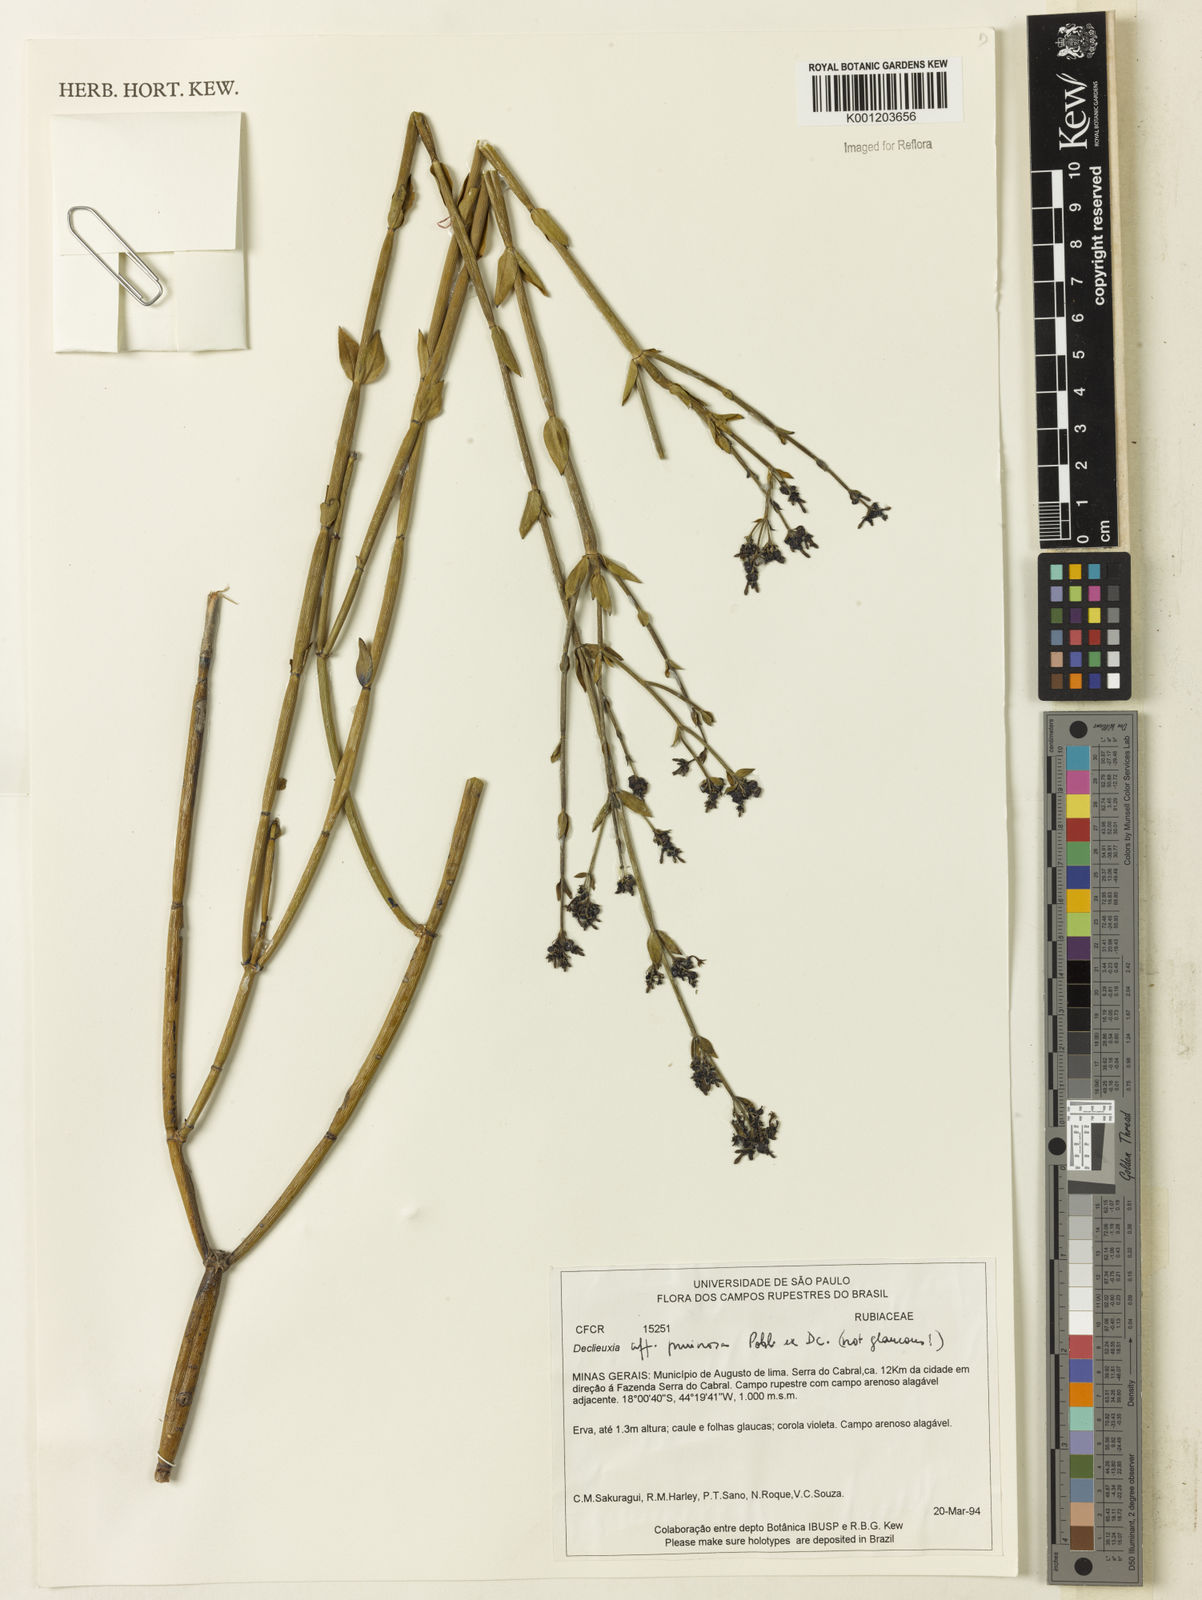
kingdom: Plantae
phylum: Tracheophyta
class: Magnoliopsida
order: Gentianales
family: Rubiaceae
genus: Declieuxia
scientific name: Declieuxia pruinosa
